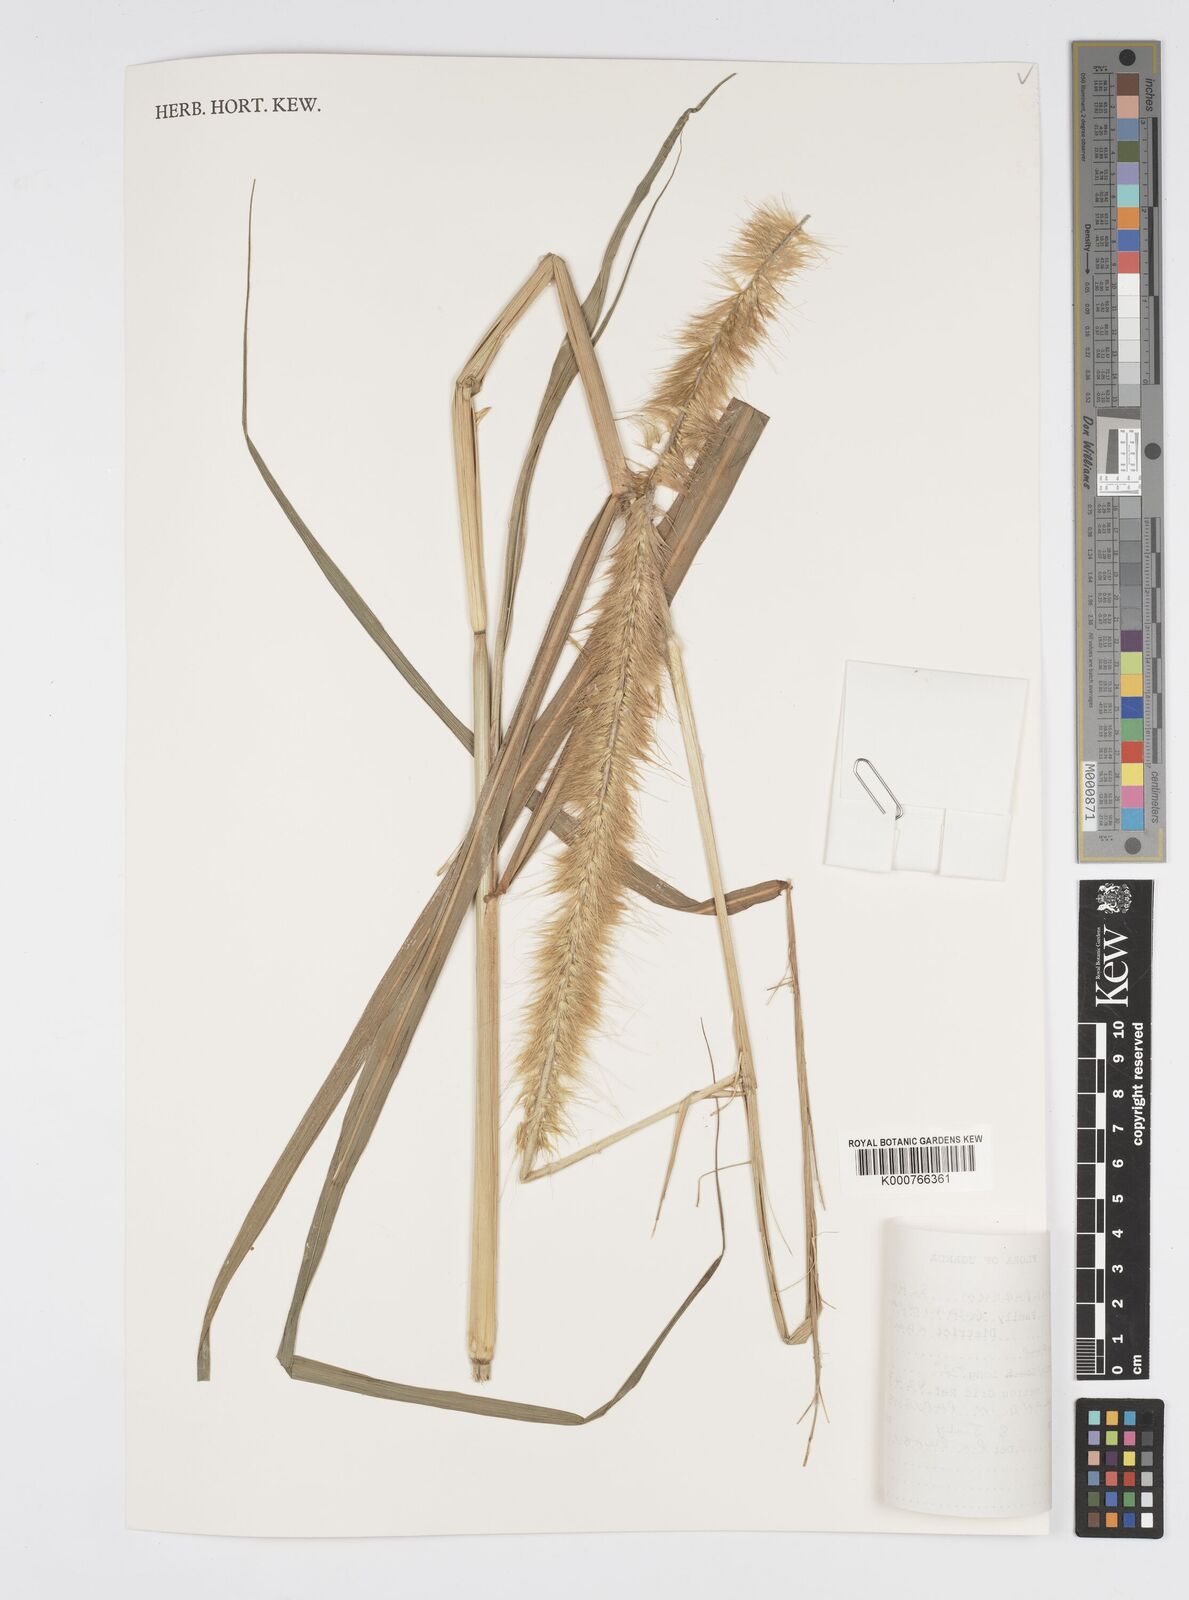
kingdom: Plantae
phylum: Tracheophyta
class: Liliopsida
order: Poales
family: Poaceae
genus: Cenchrus
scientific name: Cenchrus purpureus
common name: Elephant grass
